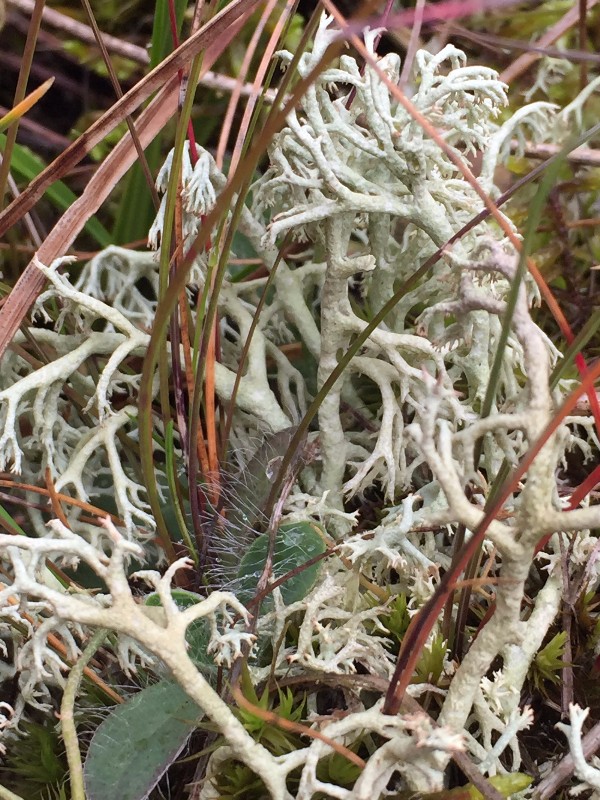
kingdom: Fungi
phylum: Ascomycota
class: Lecanoromycetes
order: Lecanorales
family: Cladoniaceae
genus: Cladonia
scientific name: Cladonia
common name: Gulhvid rensdyrlav
